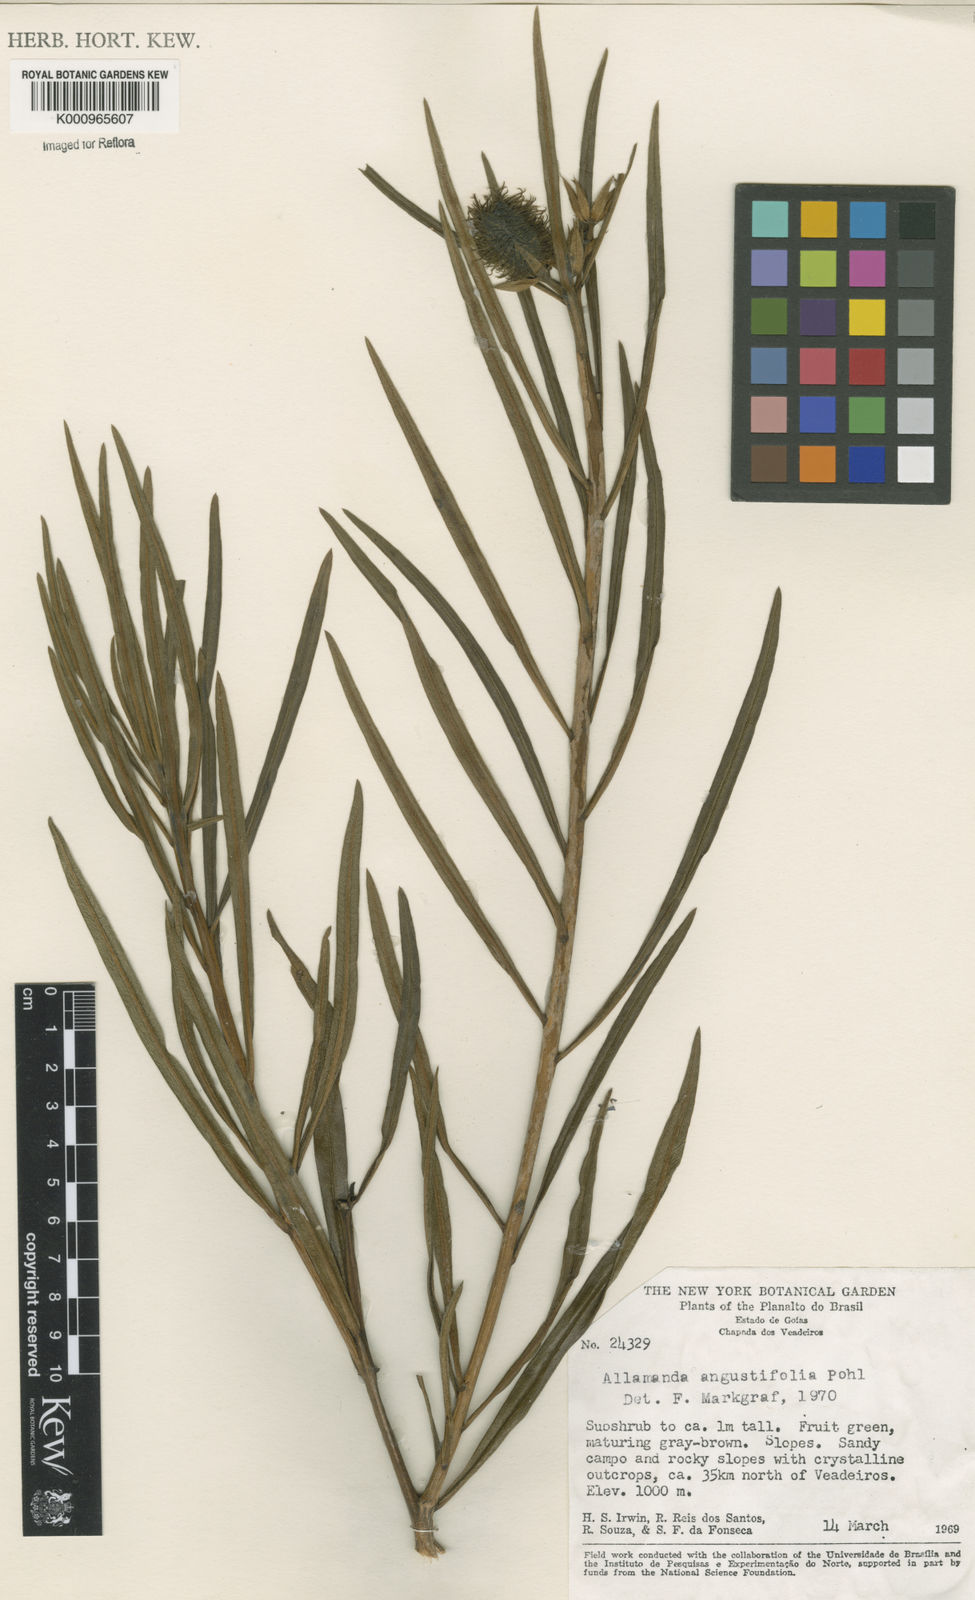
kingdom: Plantae
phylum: Tracheophyta
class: Magnoliopsida
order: Gentianales
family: Apocynaceae
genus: Allamanda
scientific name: Allamanda angustifolia
